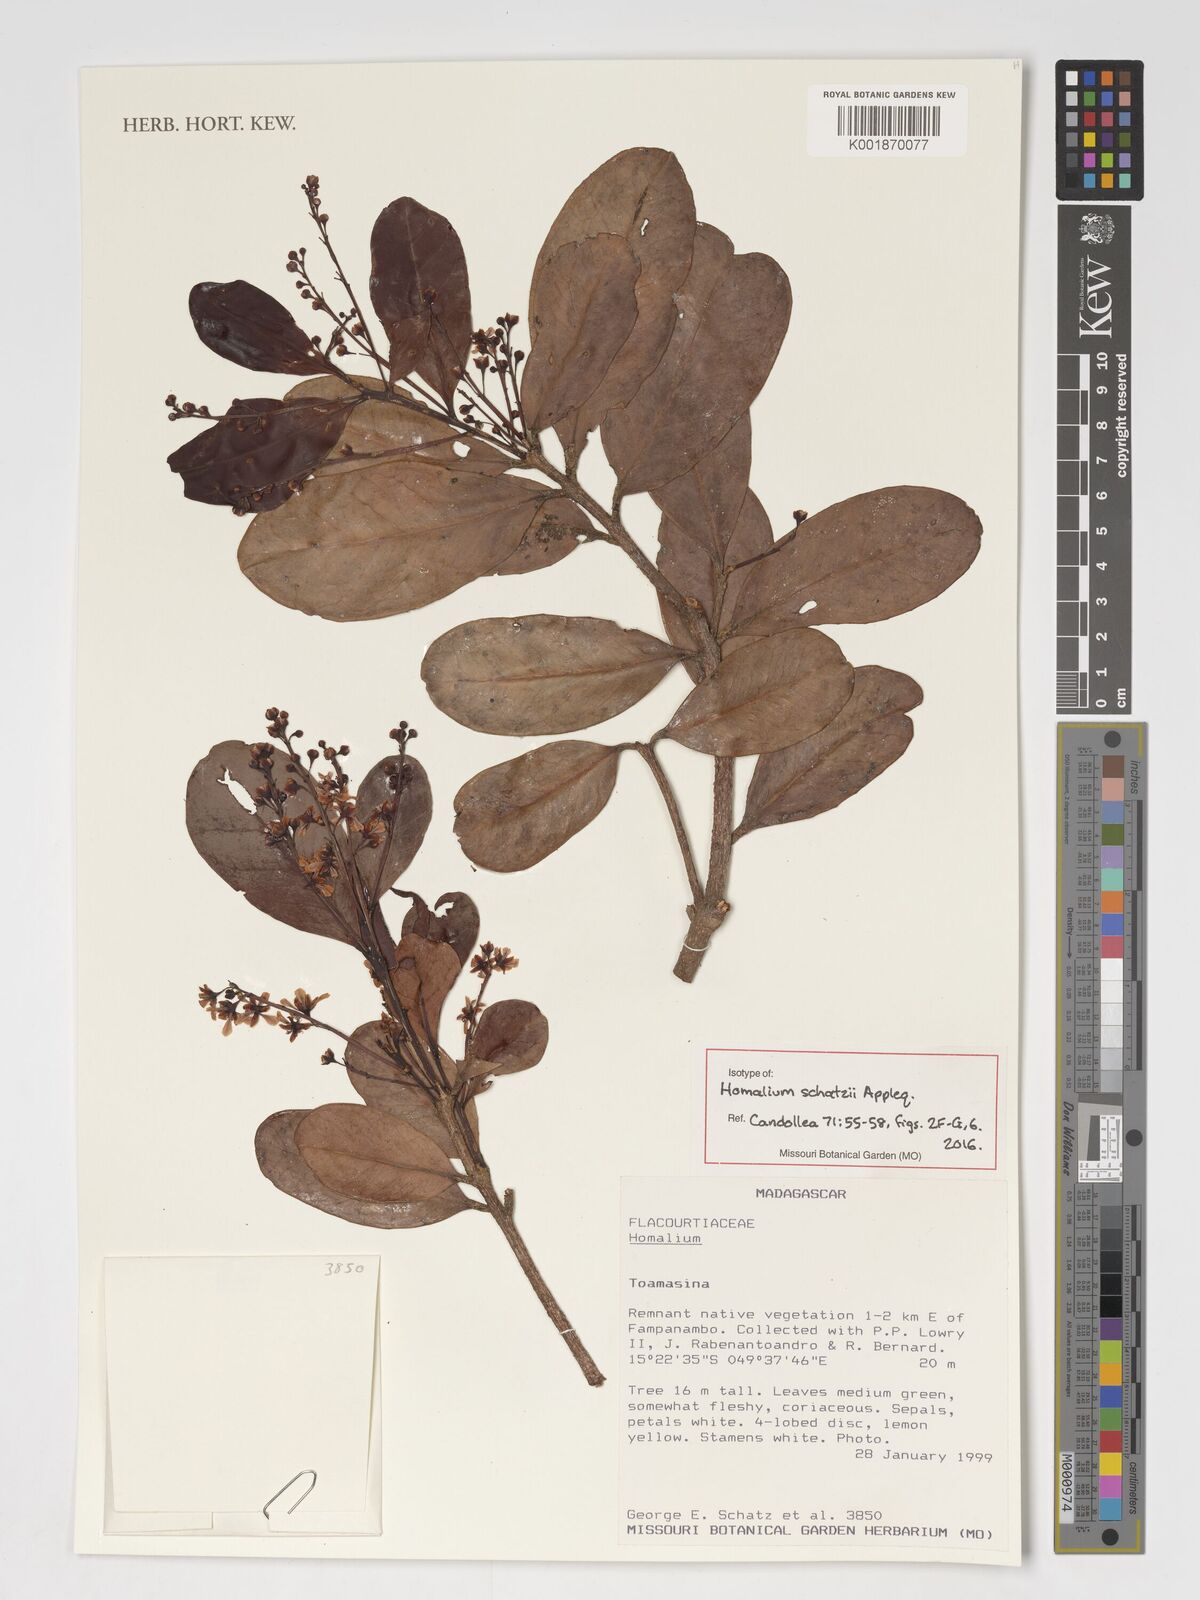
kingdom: Plantae
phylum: Tracheophyta
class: Magnoliopsida
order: Malpighiales
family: Salicaceae
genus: Homalium
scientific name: Homalium schatzii
